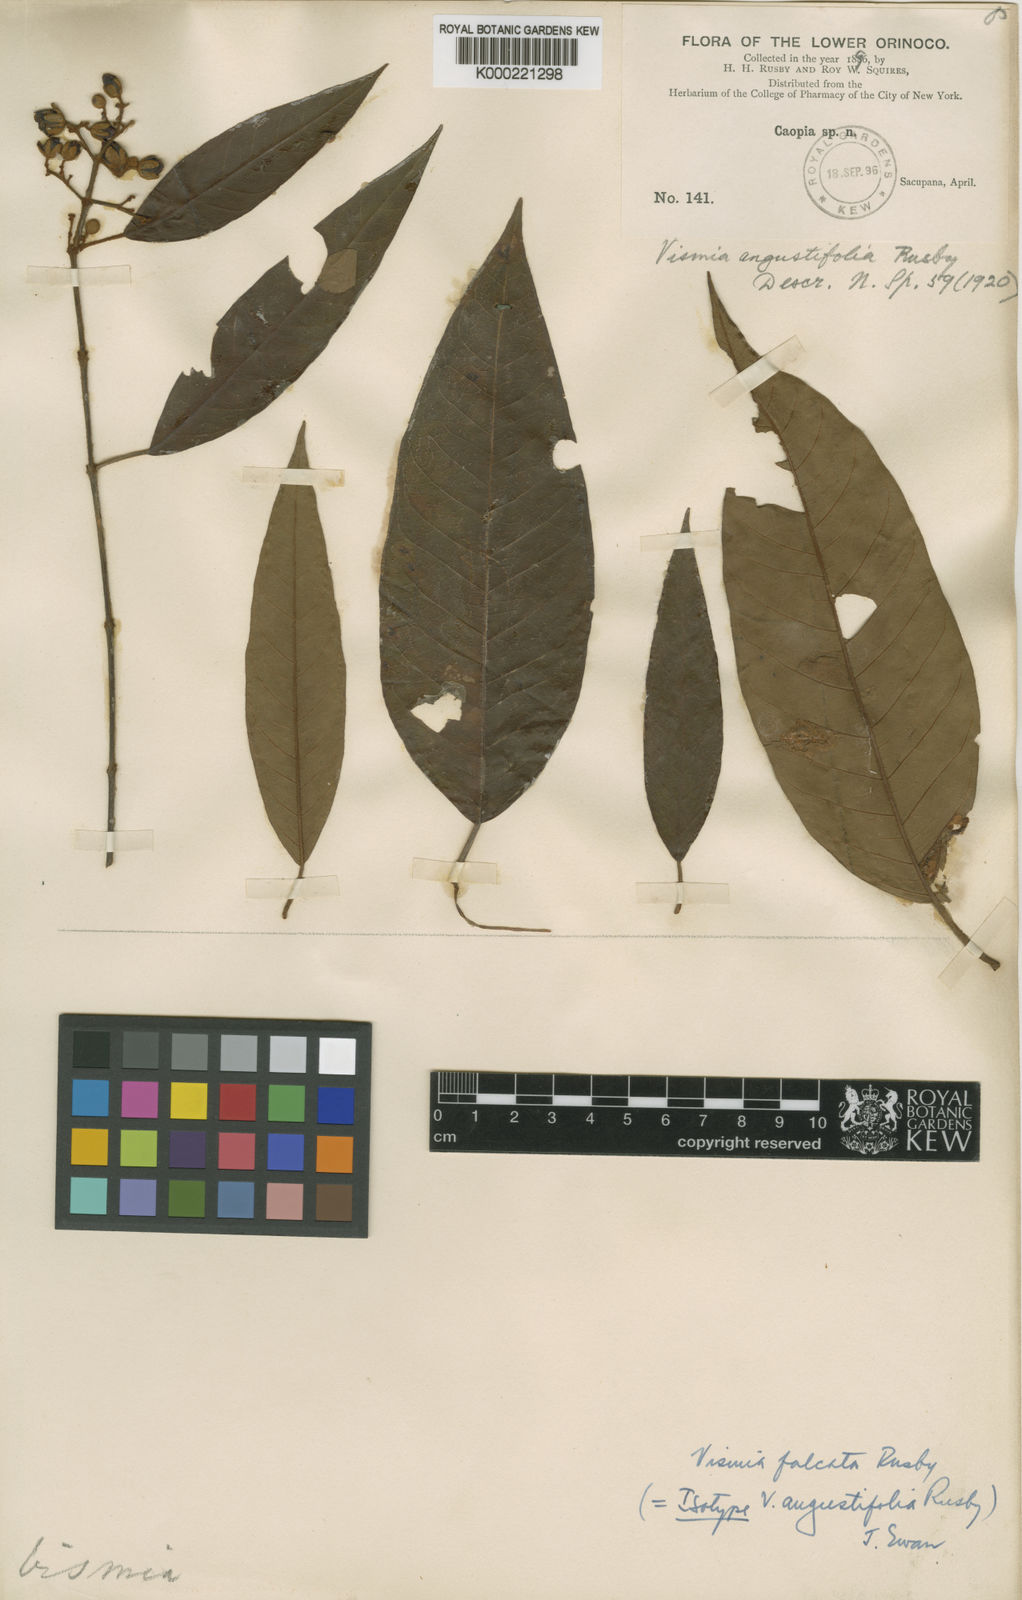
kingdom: Plantae
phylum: Tracheophyta
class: Magnoliopsida
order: Malpighiales
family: Hypericaceae
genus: Vismia
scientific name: Vismia
